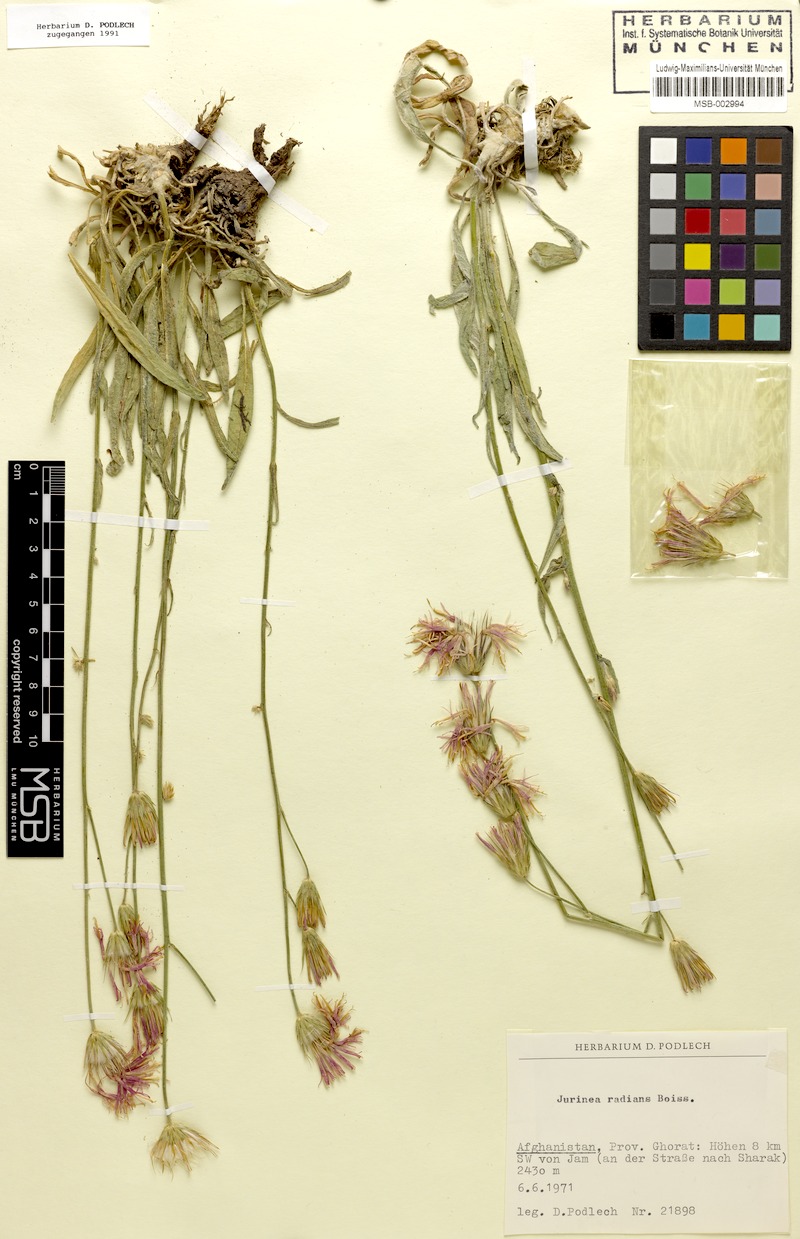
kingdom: Plantae
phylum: Tracheophyta
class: Magnoliopsida
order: Asterales
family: Asteraceae
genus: Jurinea
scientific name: Jurinea shahrestanica
